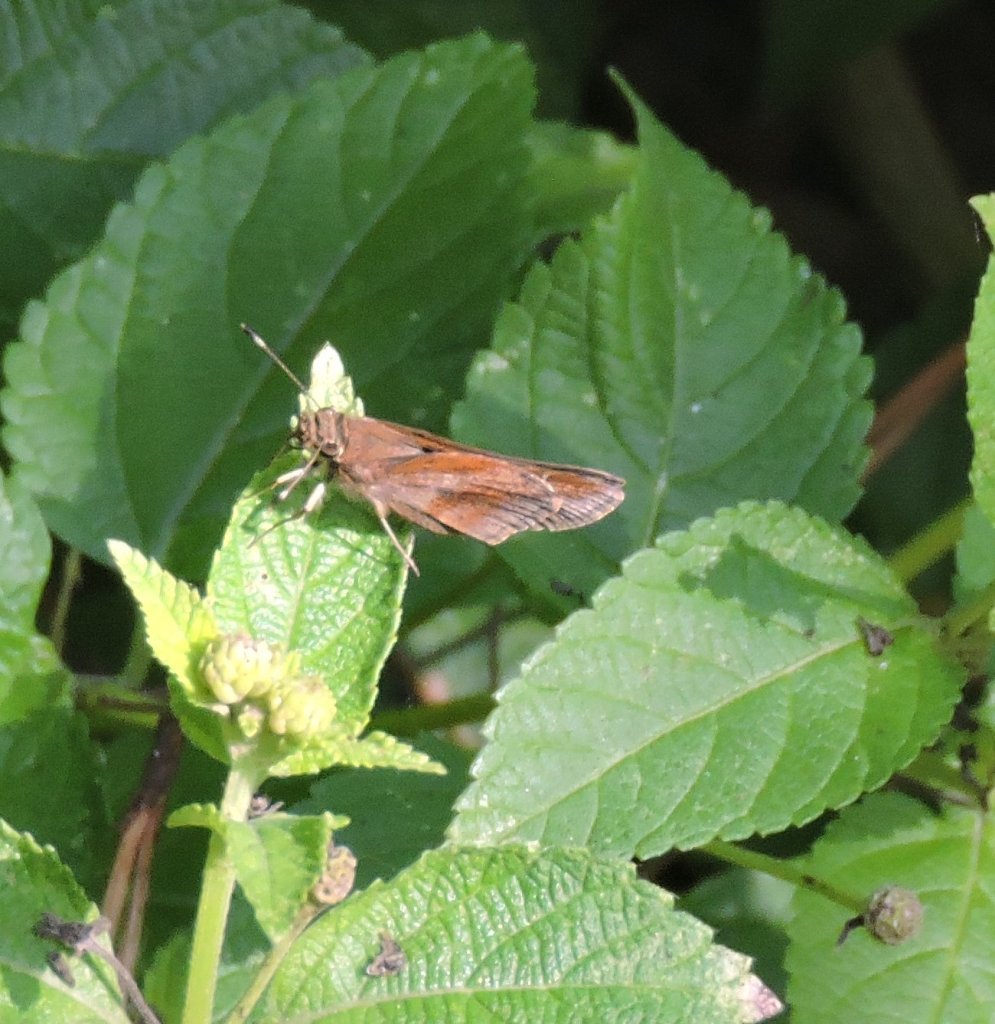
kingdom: Animalia
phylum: Arthropoda
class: Insecta
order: Lepidoptera
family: Hesperiidae
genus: Lerema
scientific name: Lerema accius
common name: Clouded Skipper
